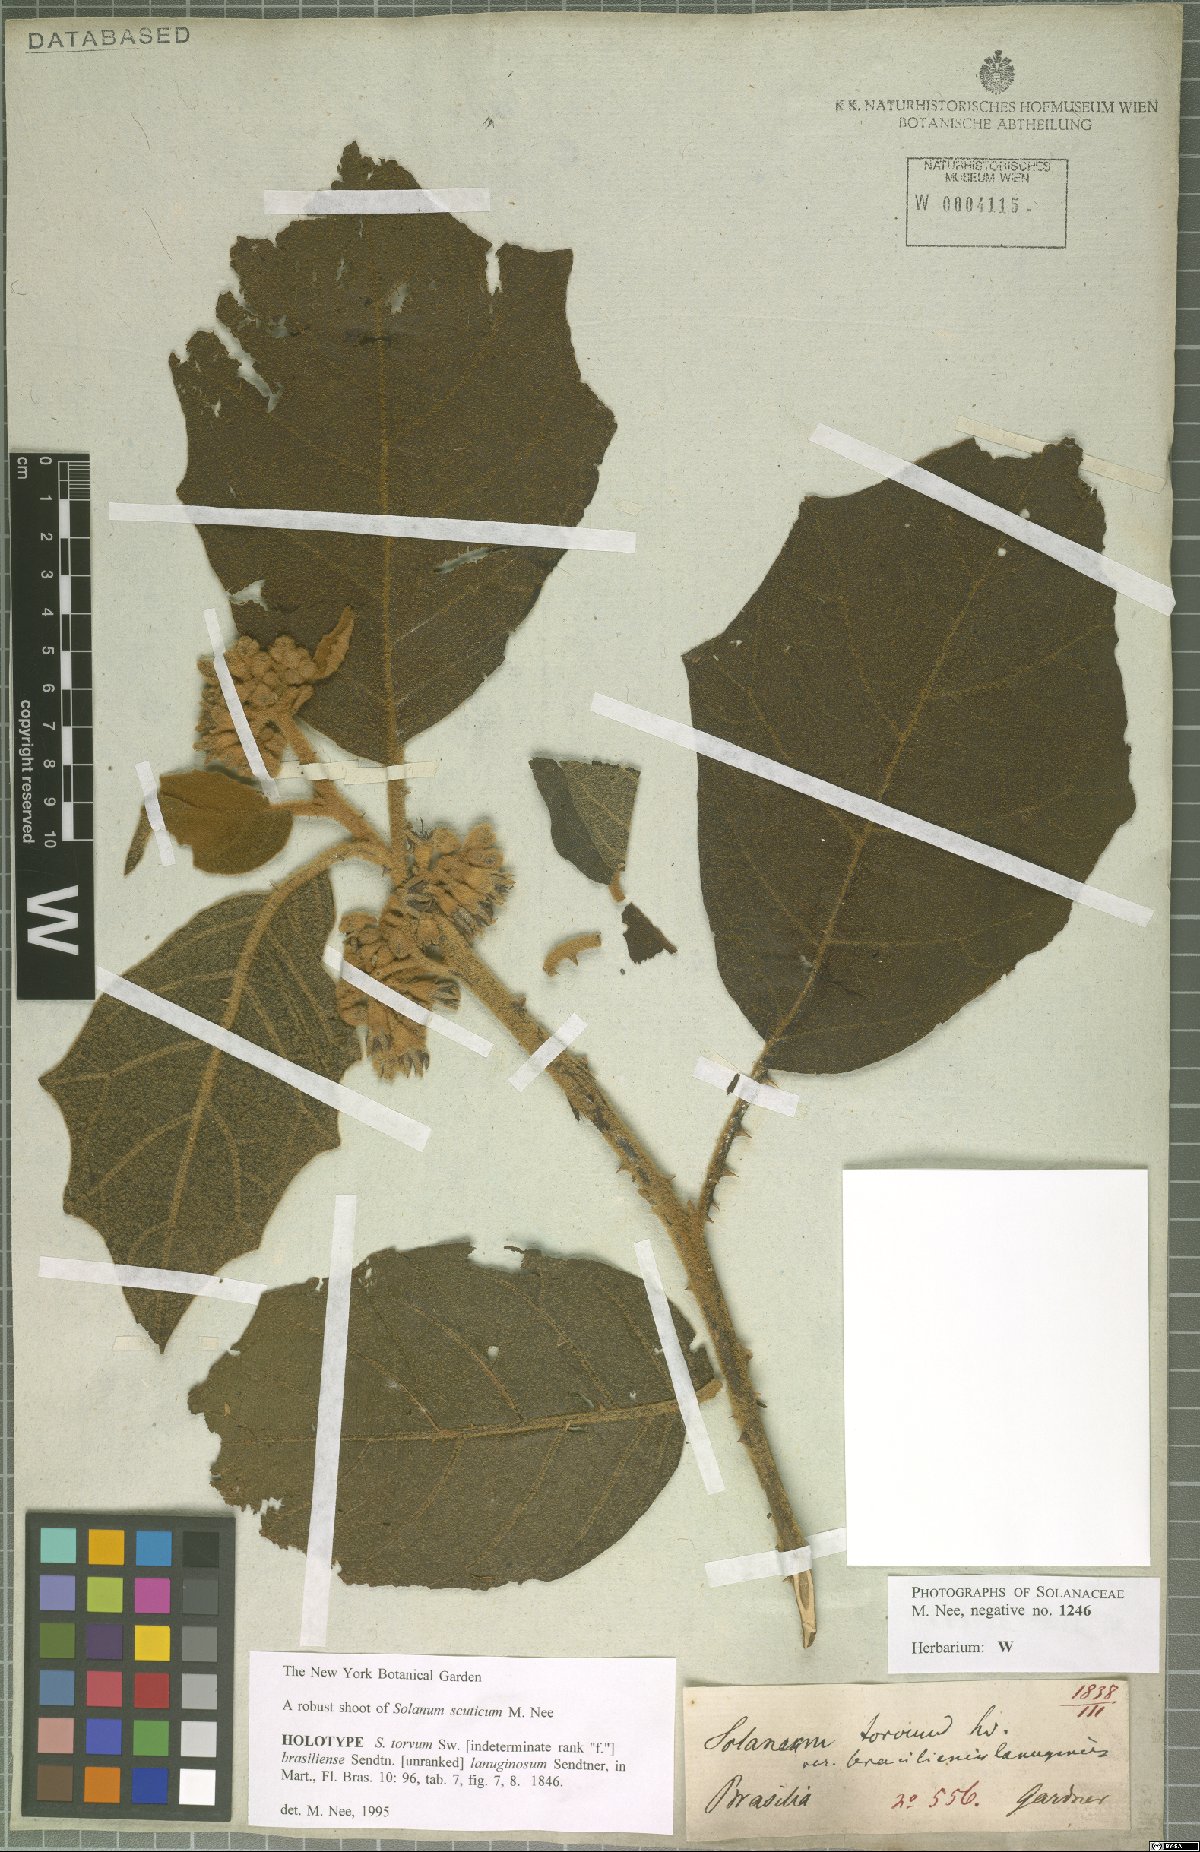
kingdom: Plantae
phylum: Tracheophyta
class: Magnoliopsida
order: Solanales
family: Solanaceae
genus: Solanum
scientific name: Solanum scuticum
